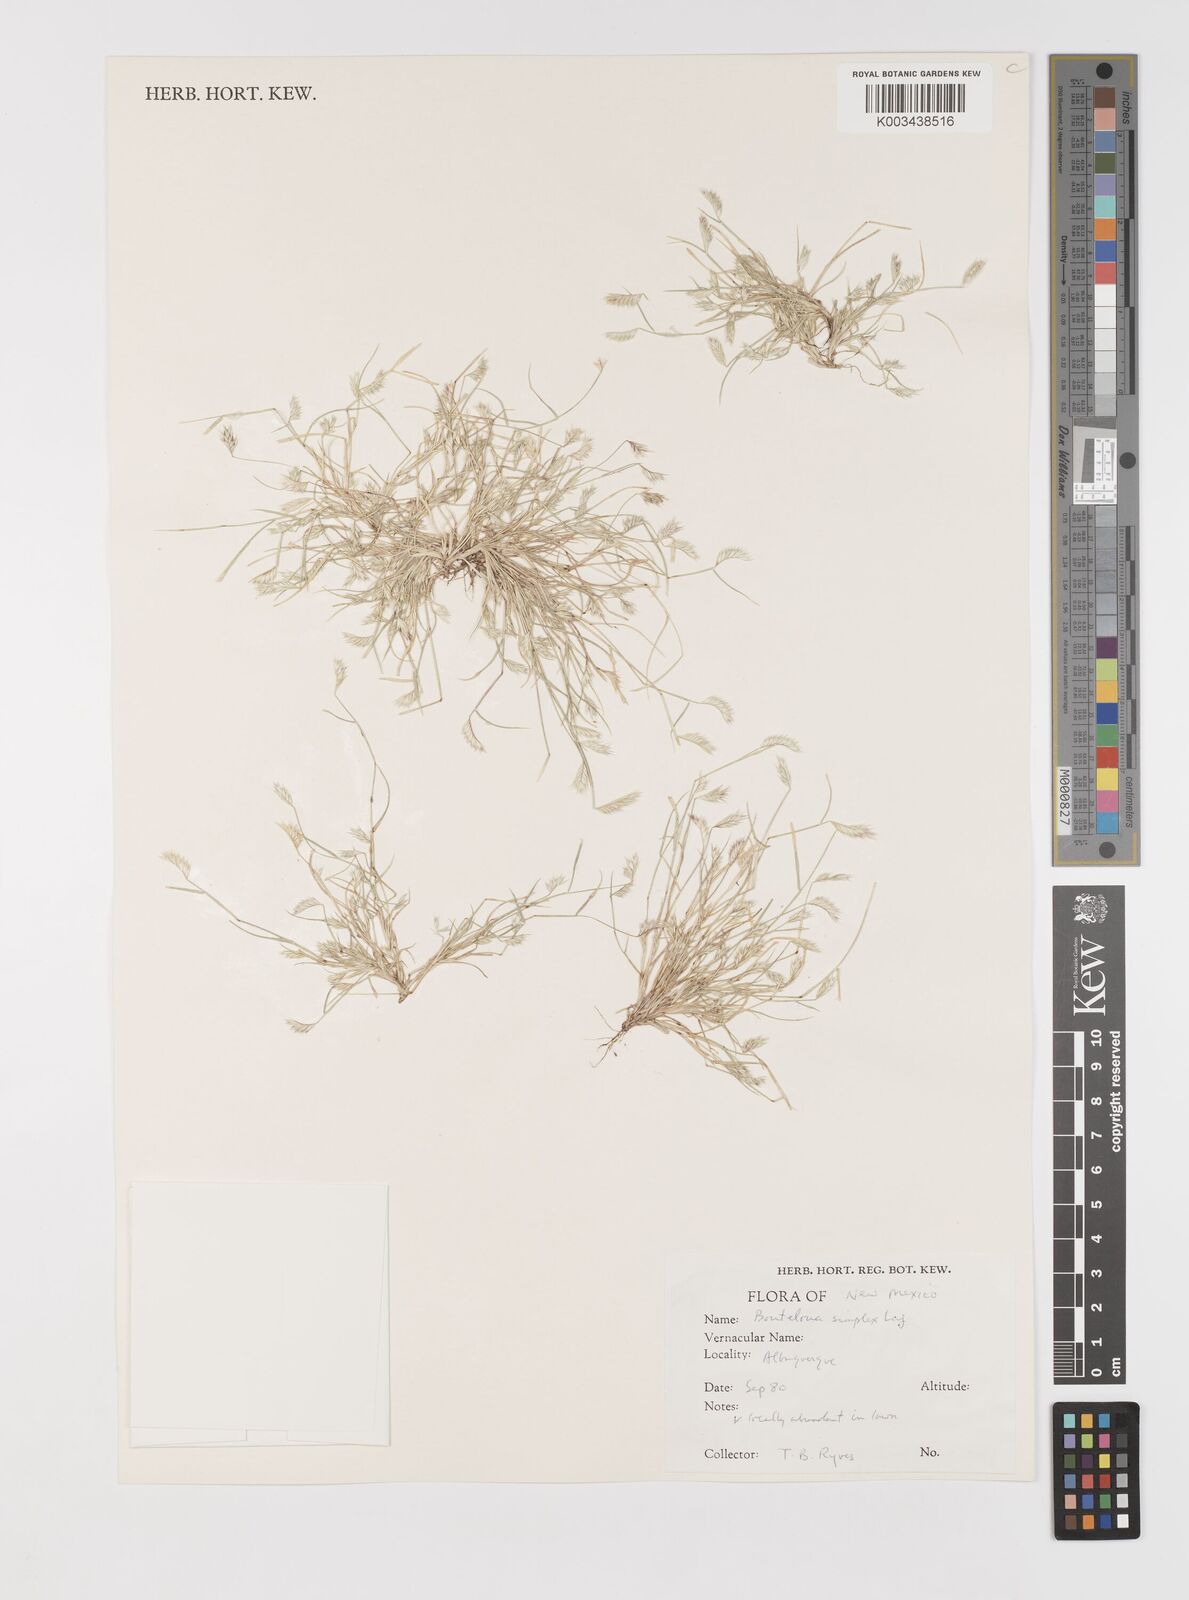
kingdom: Plantae
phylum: Tracheophyta
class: Liliopsida
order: Poales
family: Poaceae
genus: Bouteloua
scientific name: Bouteloua simplex
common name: Mat grama
